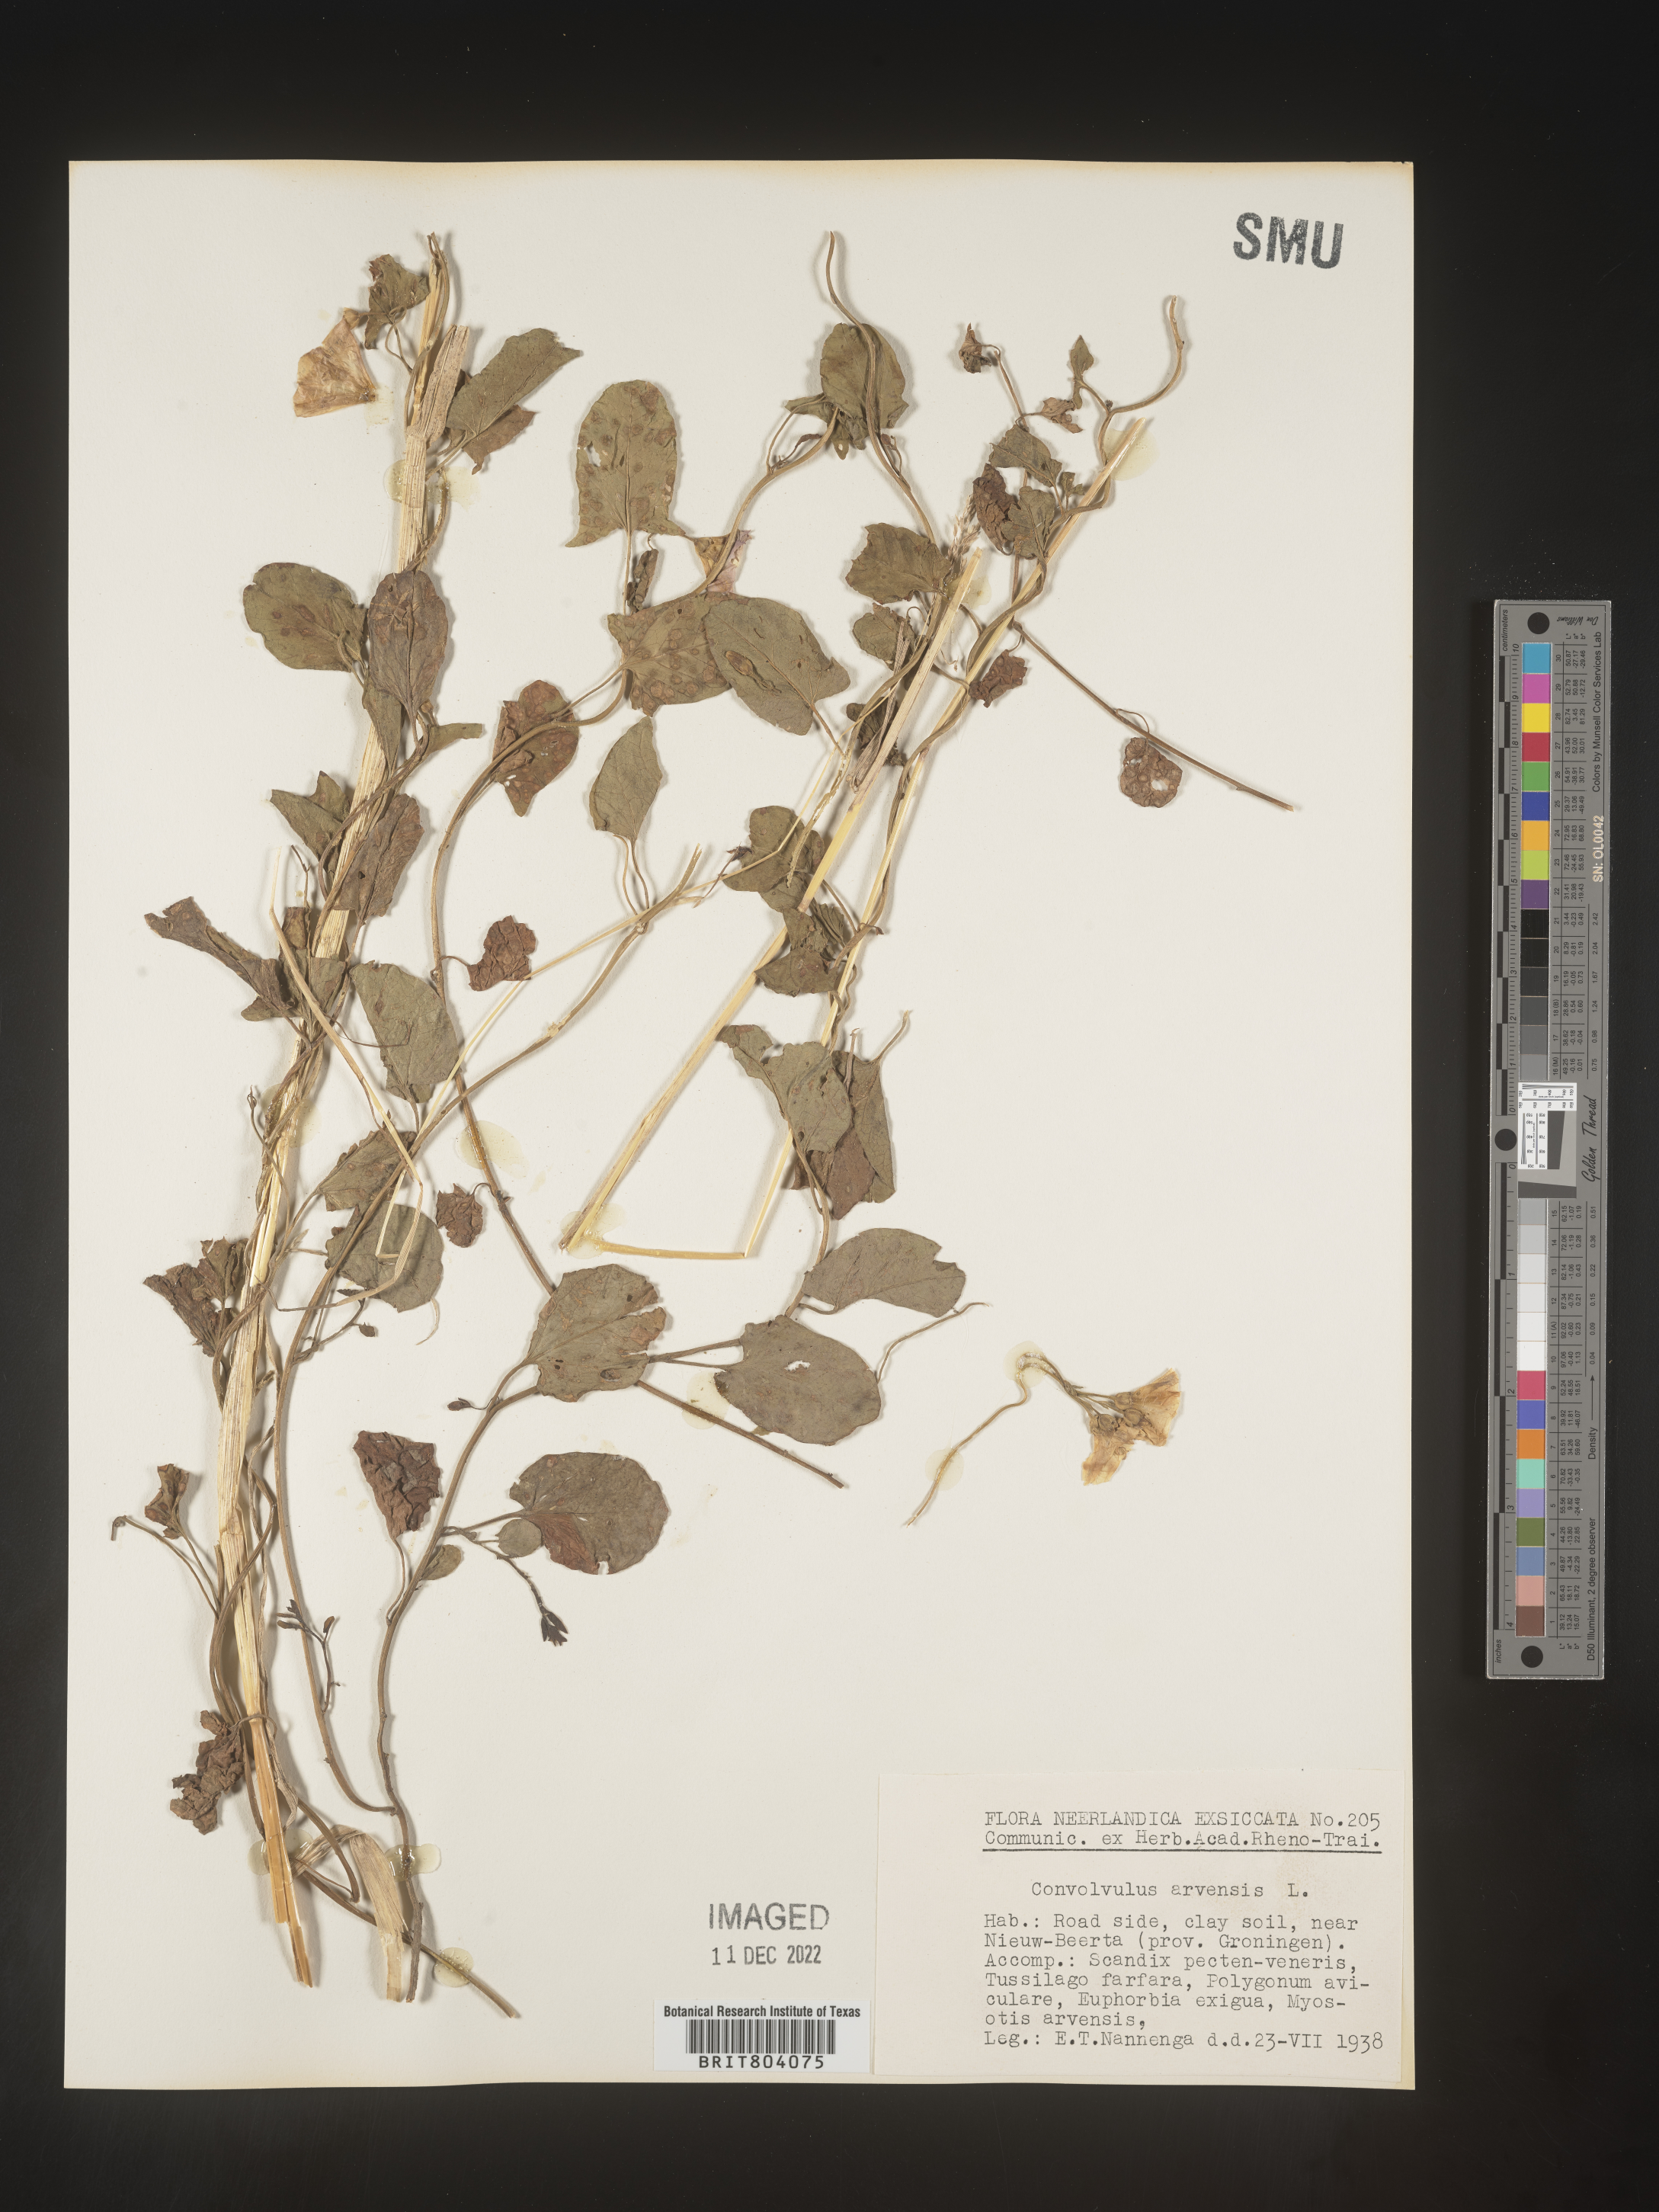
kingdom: Plantae
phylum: Tracheophyta
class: Magnoliopsida
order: Solanales
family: Convolvulaceae
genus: Convolvulus
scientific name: Convolvulus
